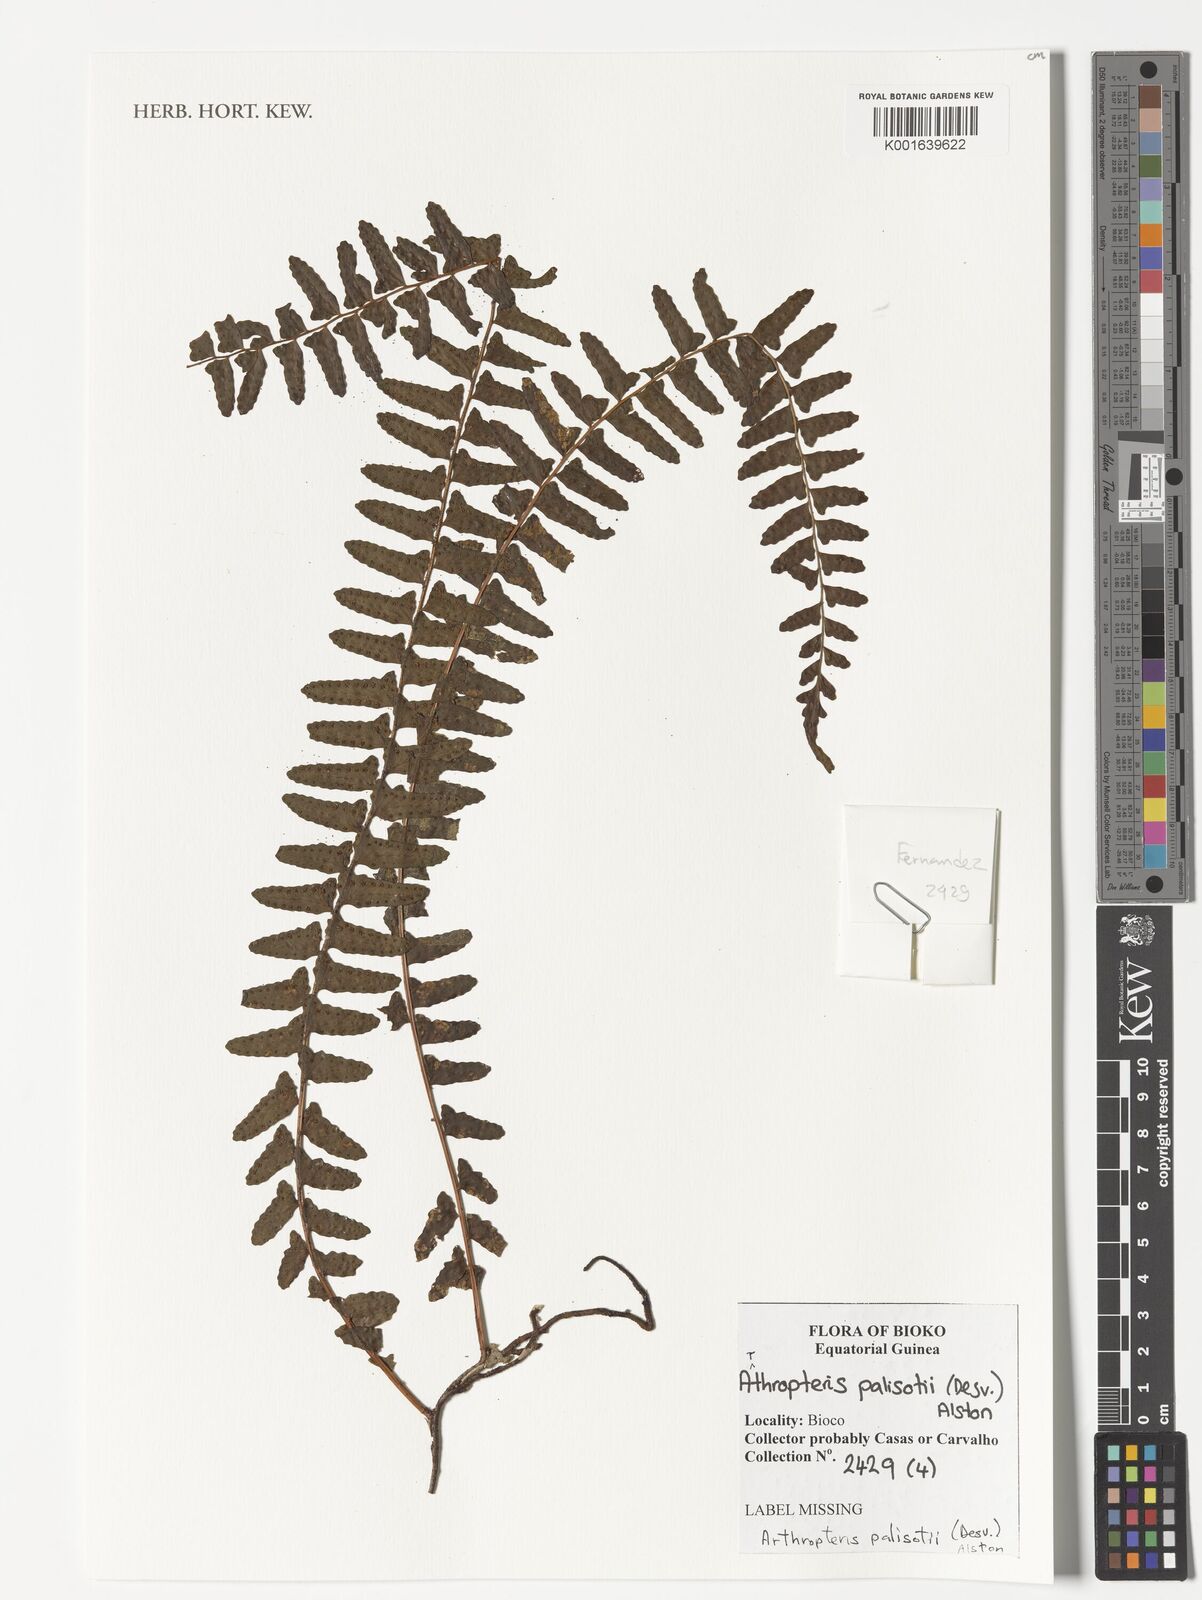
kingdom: Plantae
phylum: Tracheophyta
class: Polypodiopsida
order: Polypodiales
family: Tectariaceae
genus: Arthropteris
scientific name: Arthropteris palisotii
